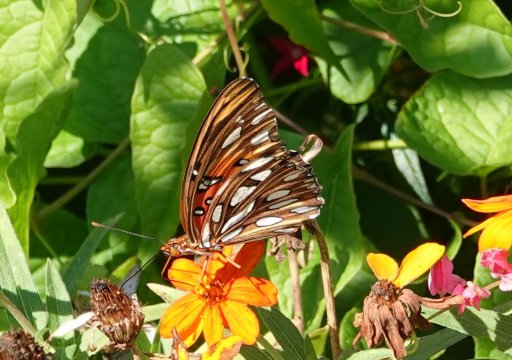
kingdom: Animalia
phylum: Arthropoda
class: Insecta
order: Lepidoptera
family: Nymphalidae
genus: Dione
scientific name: Dione vanillae
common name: Gulf Fritillary
